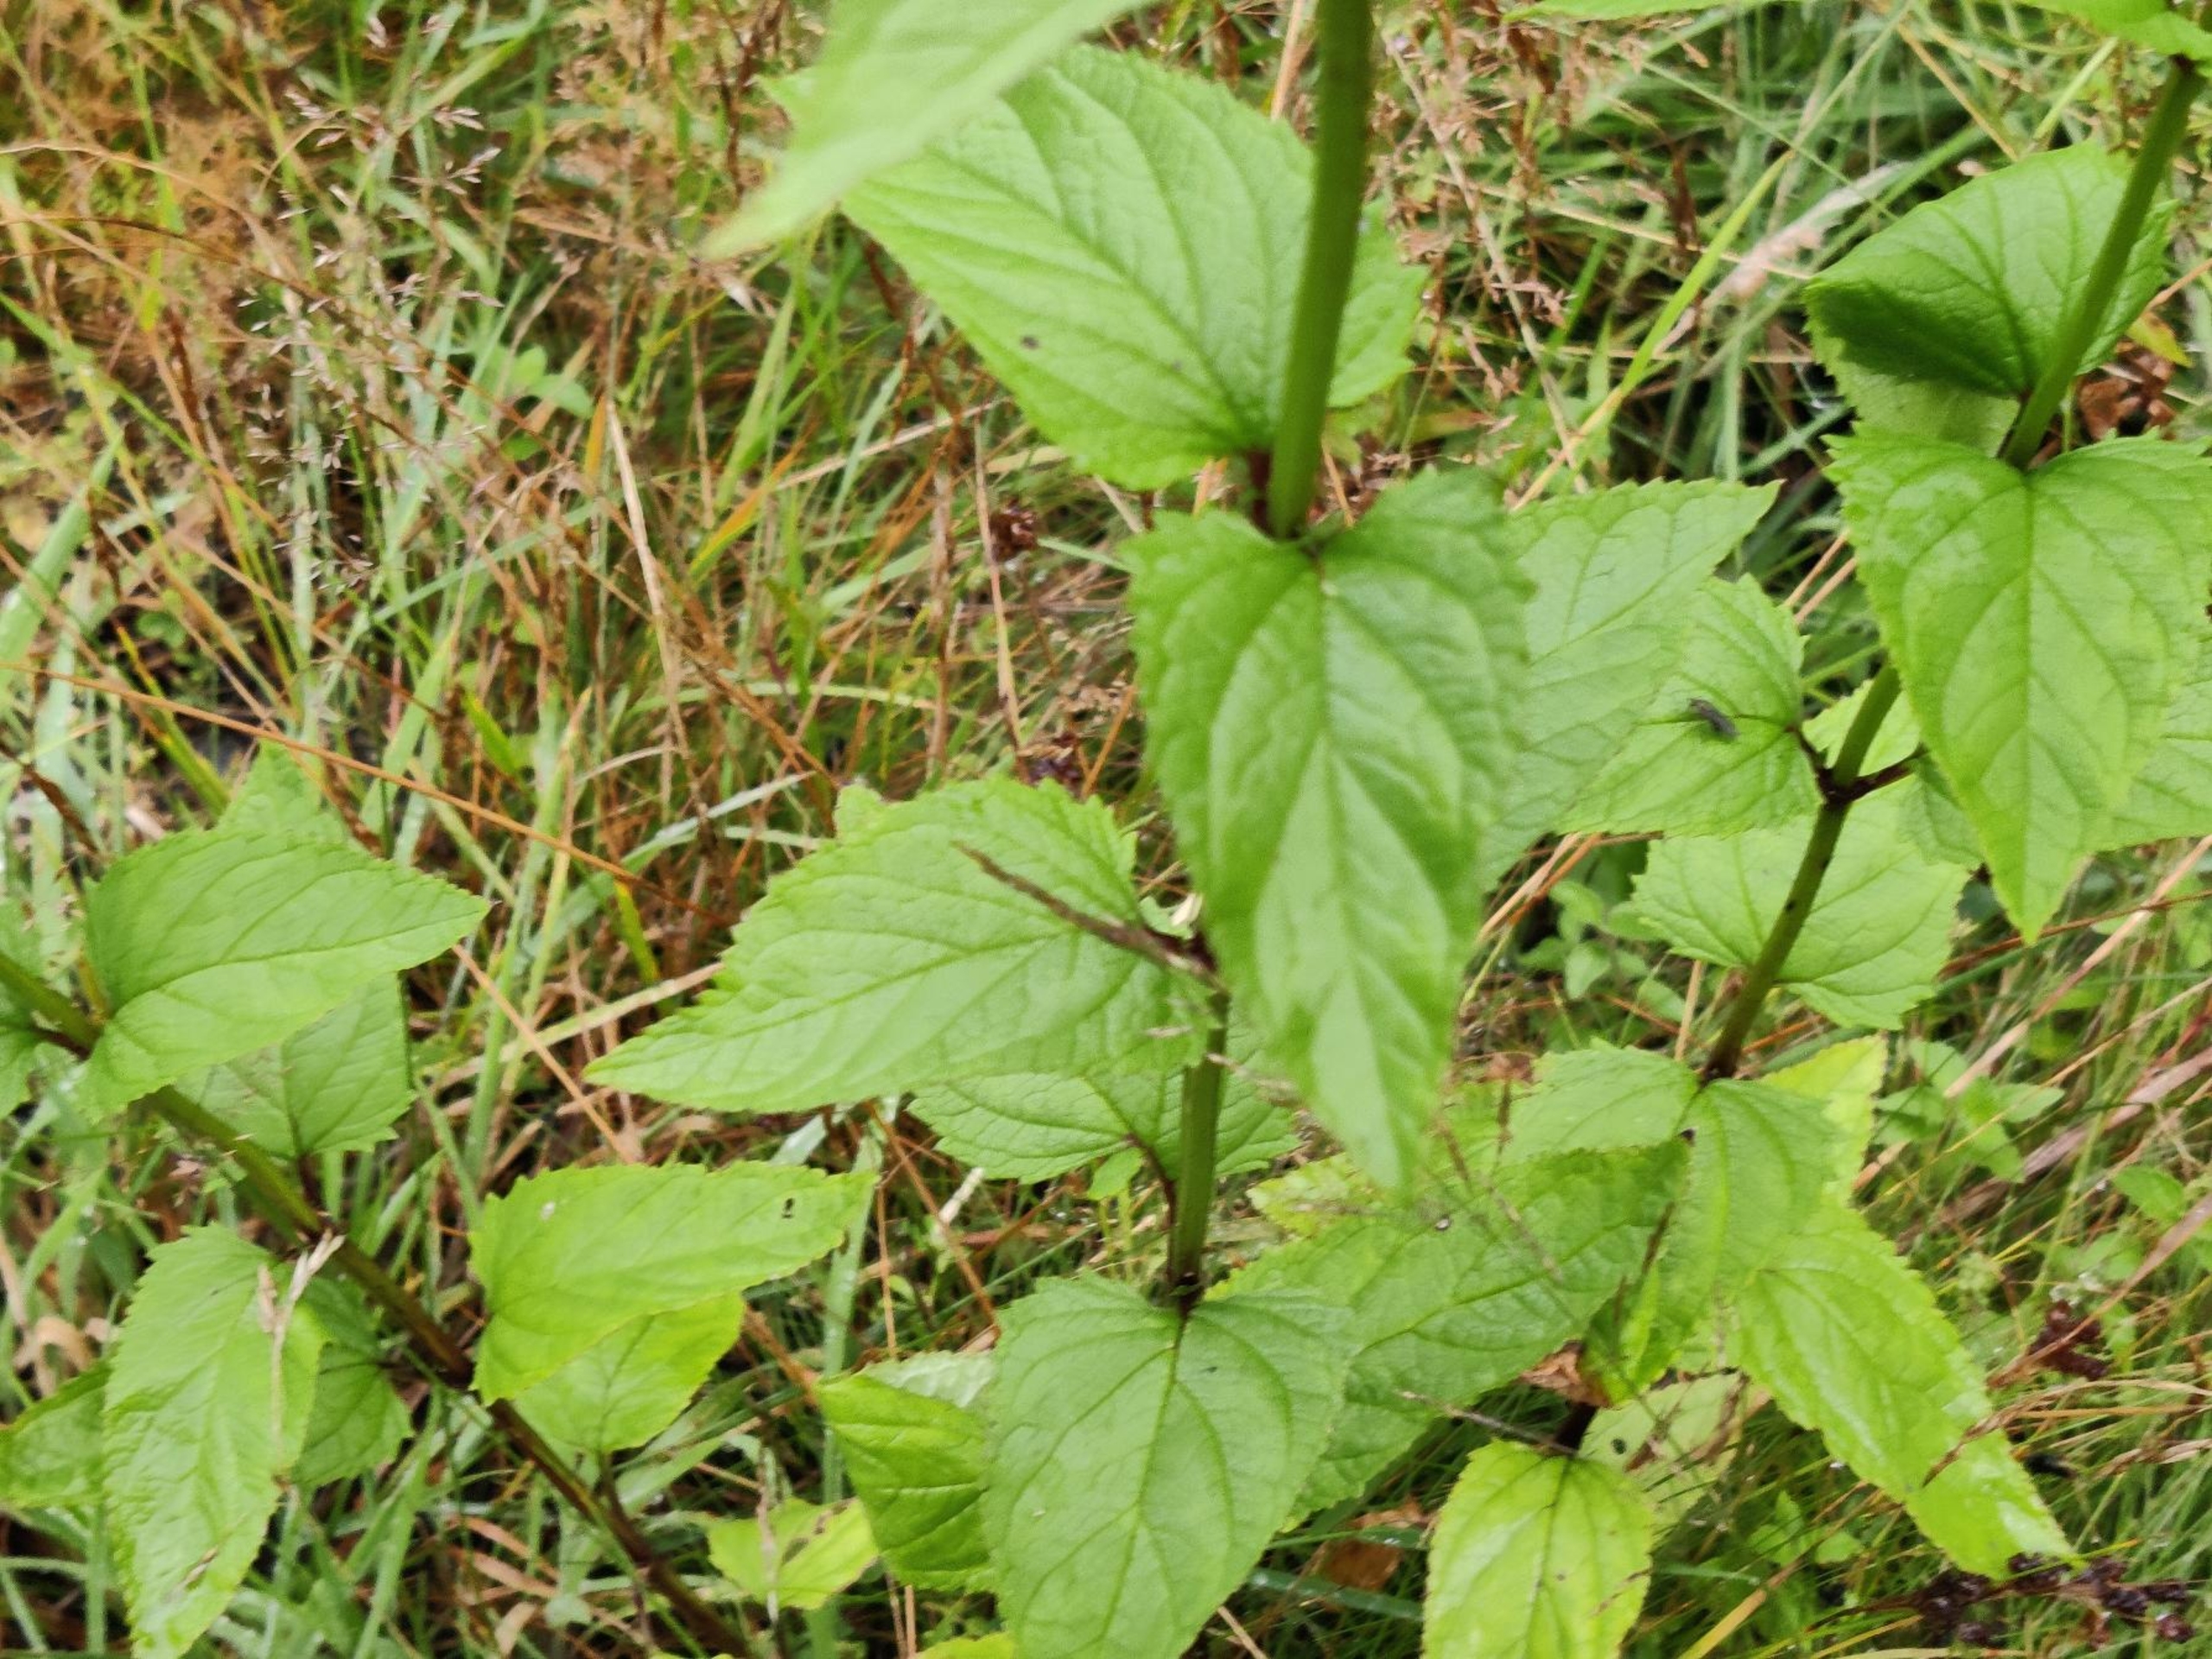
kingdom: Plantae
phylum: Tracheophyta
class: Magnoliopsida
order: Lamiales
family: Scrophulariaceae
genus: Scrophularia
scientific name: Scrophularia nodosa
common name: Knoldet brunrod
